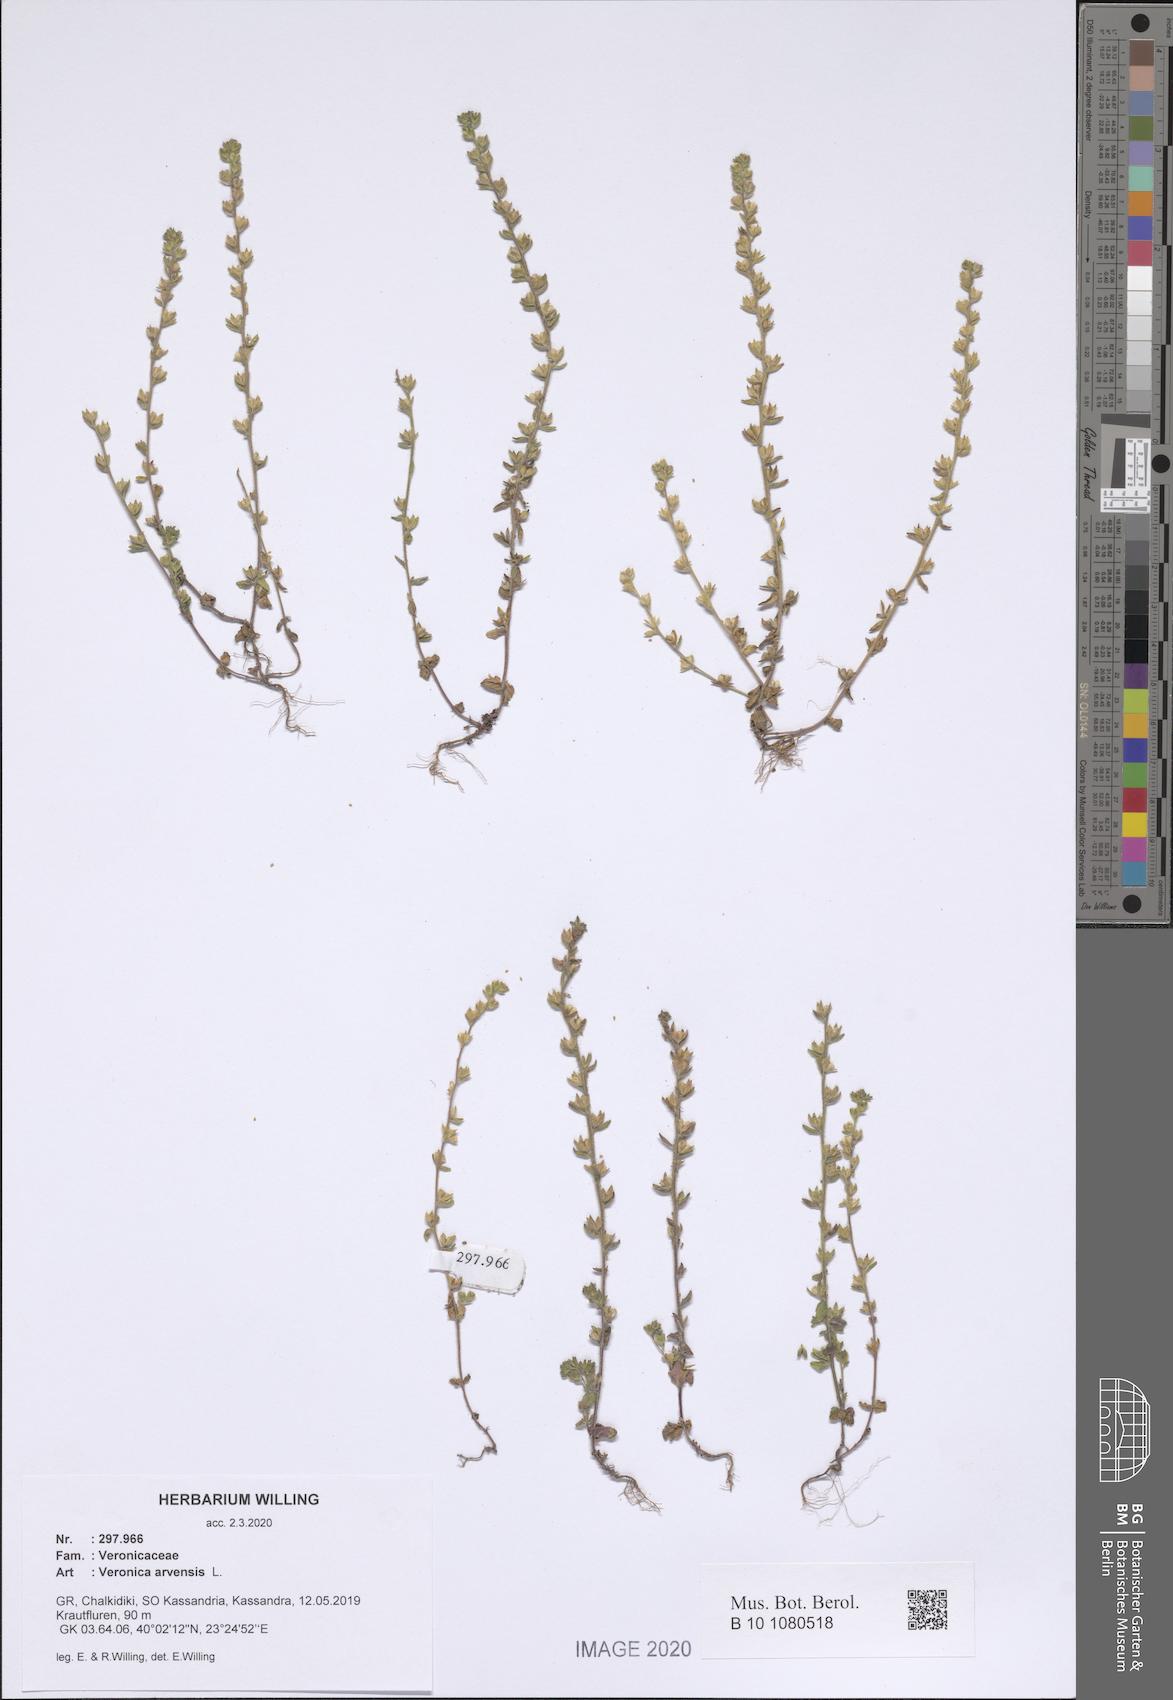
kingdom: Plantae
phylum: Tracheophyta
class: Magnoliopsida
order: Lamiales
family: Plantaginaceae
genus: Veronica
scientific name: Veronica arvensis
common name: Corn speedwell
